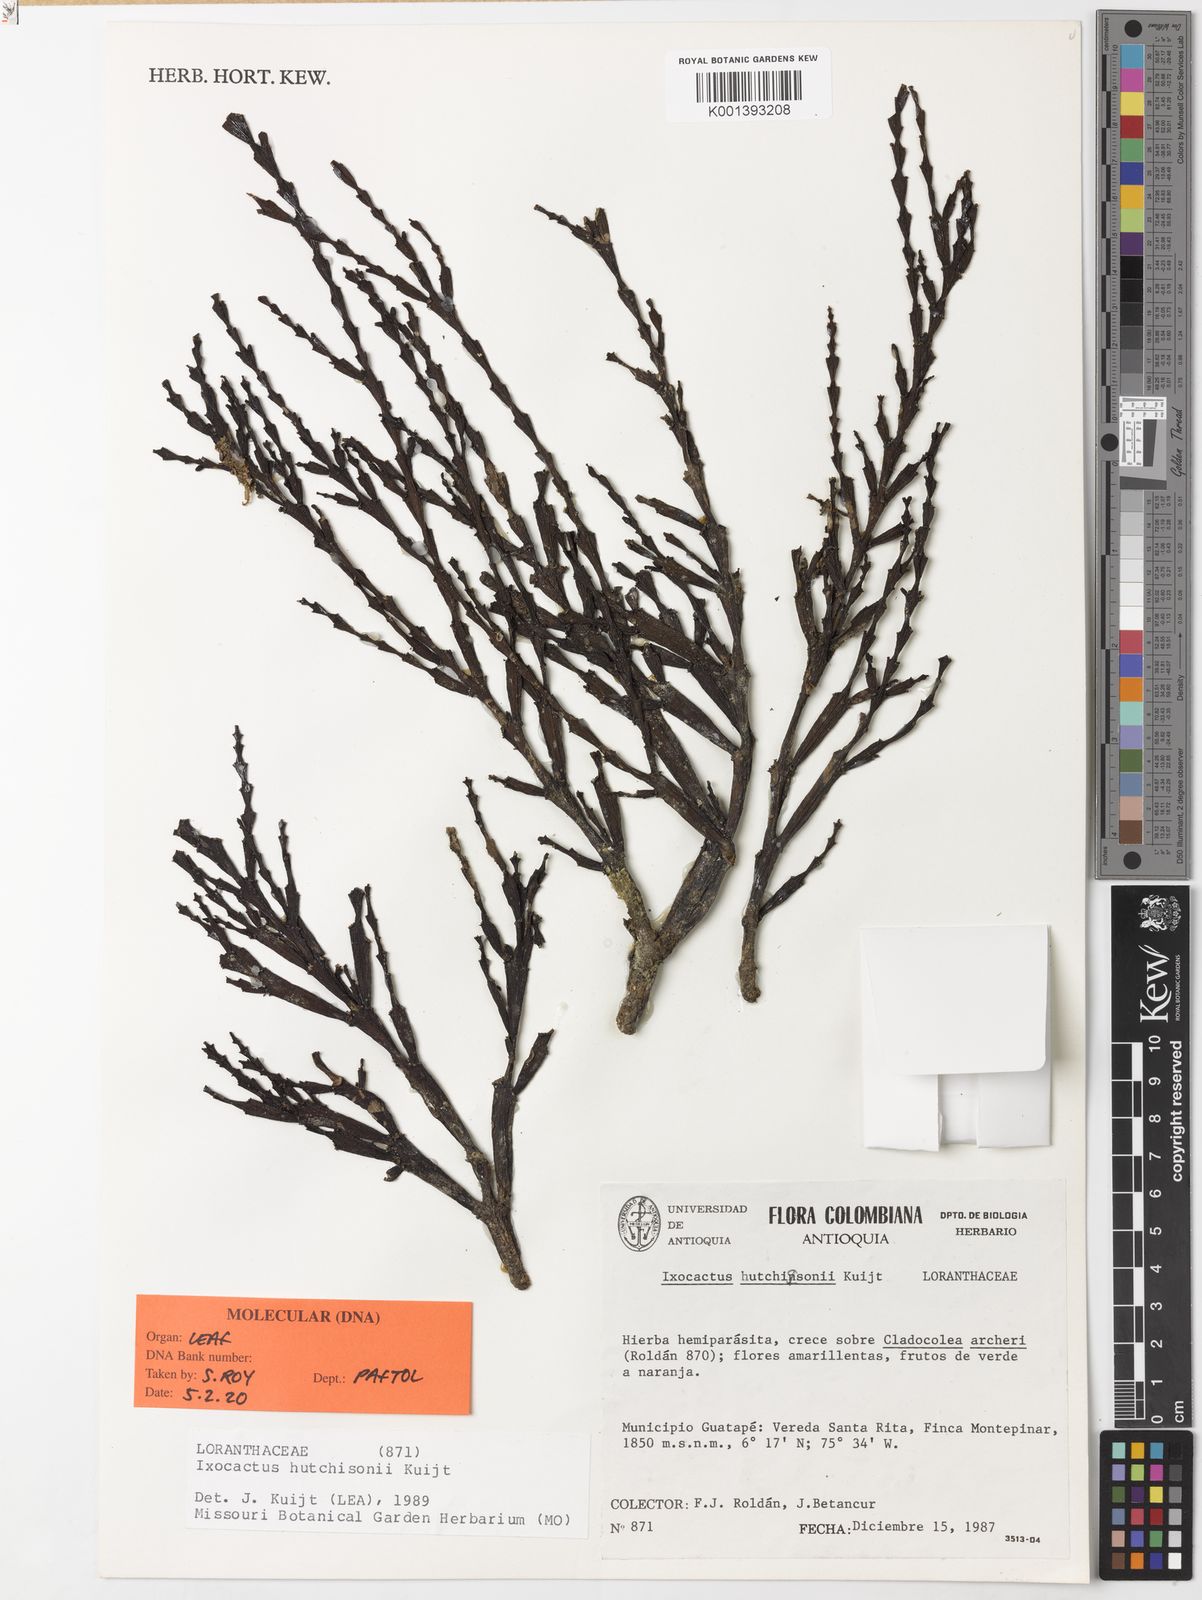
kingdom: Plantae
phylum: Tracheophyta
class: Magnoliopsida
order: Santalales
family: Loranthaceae
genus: Phthirusa
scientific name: Phthirusa hutchisonii
